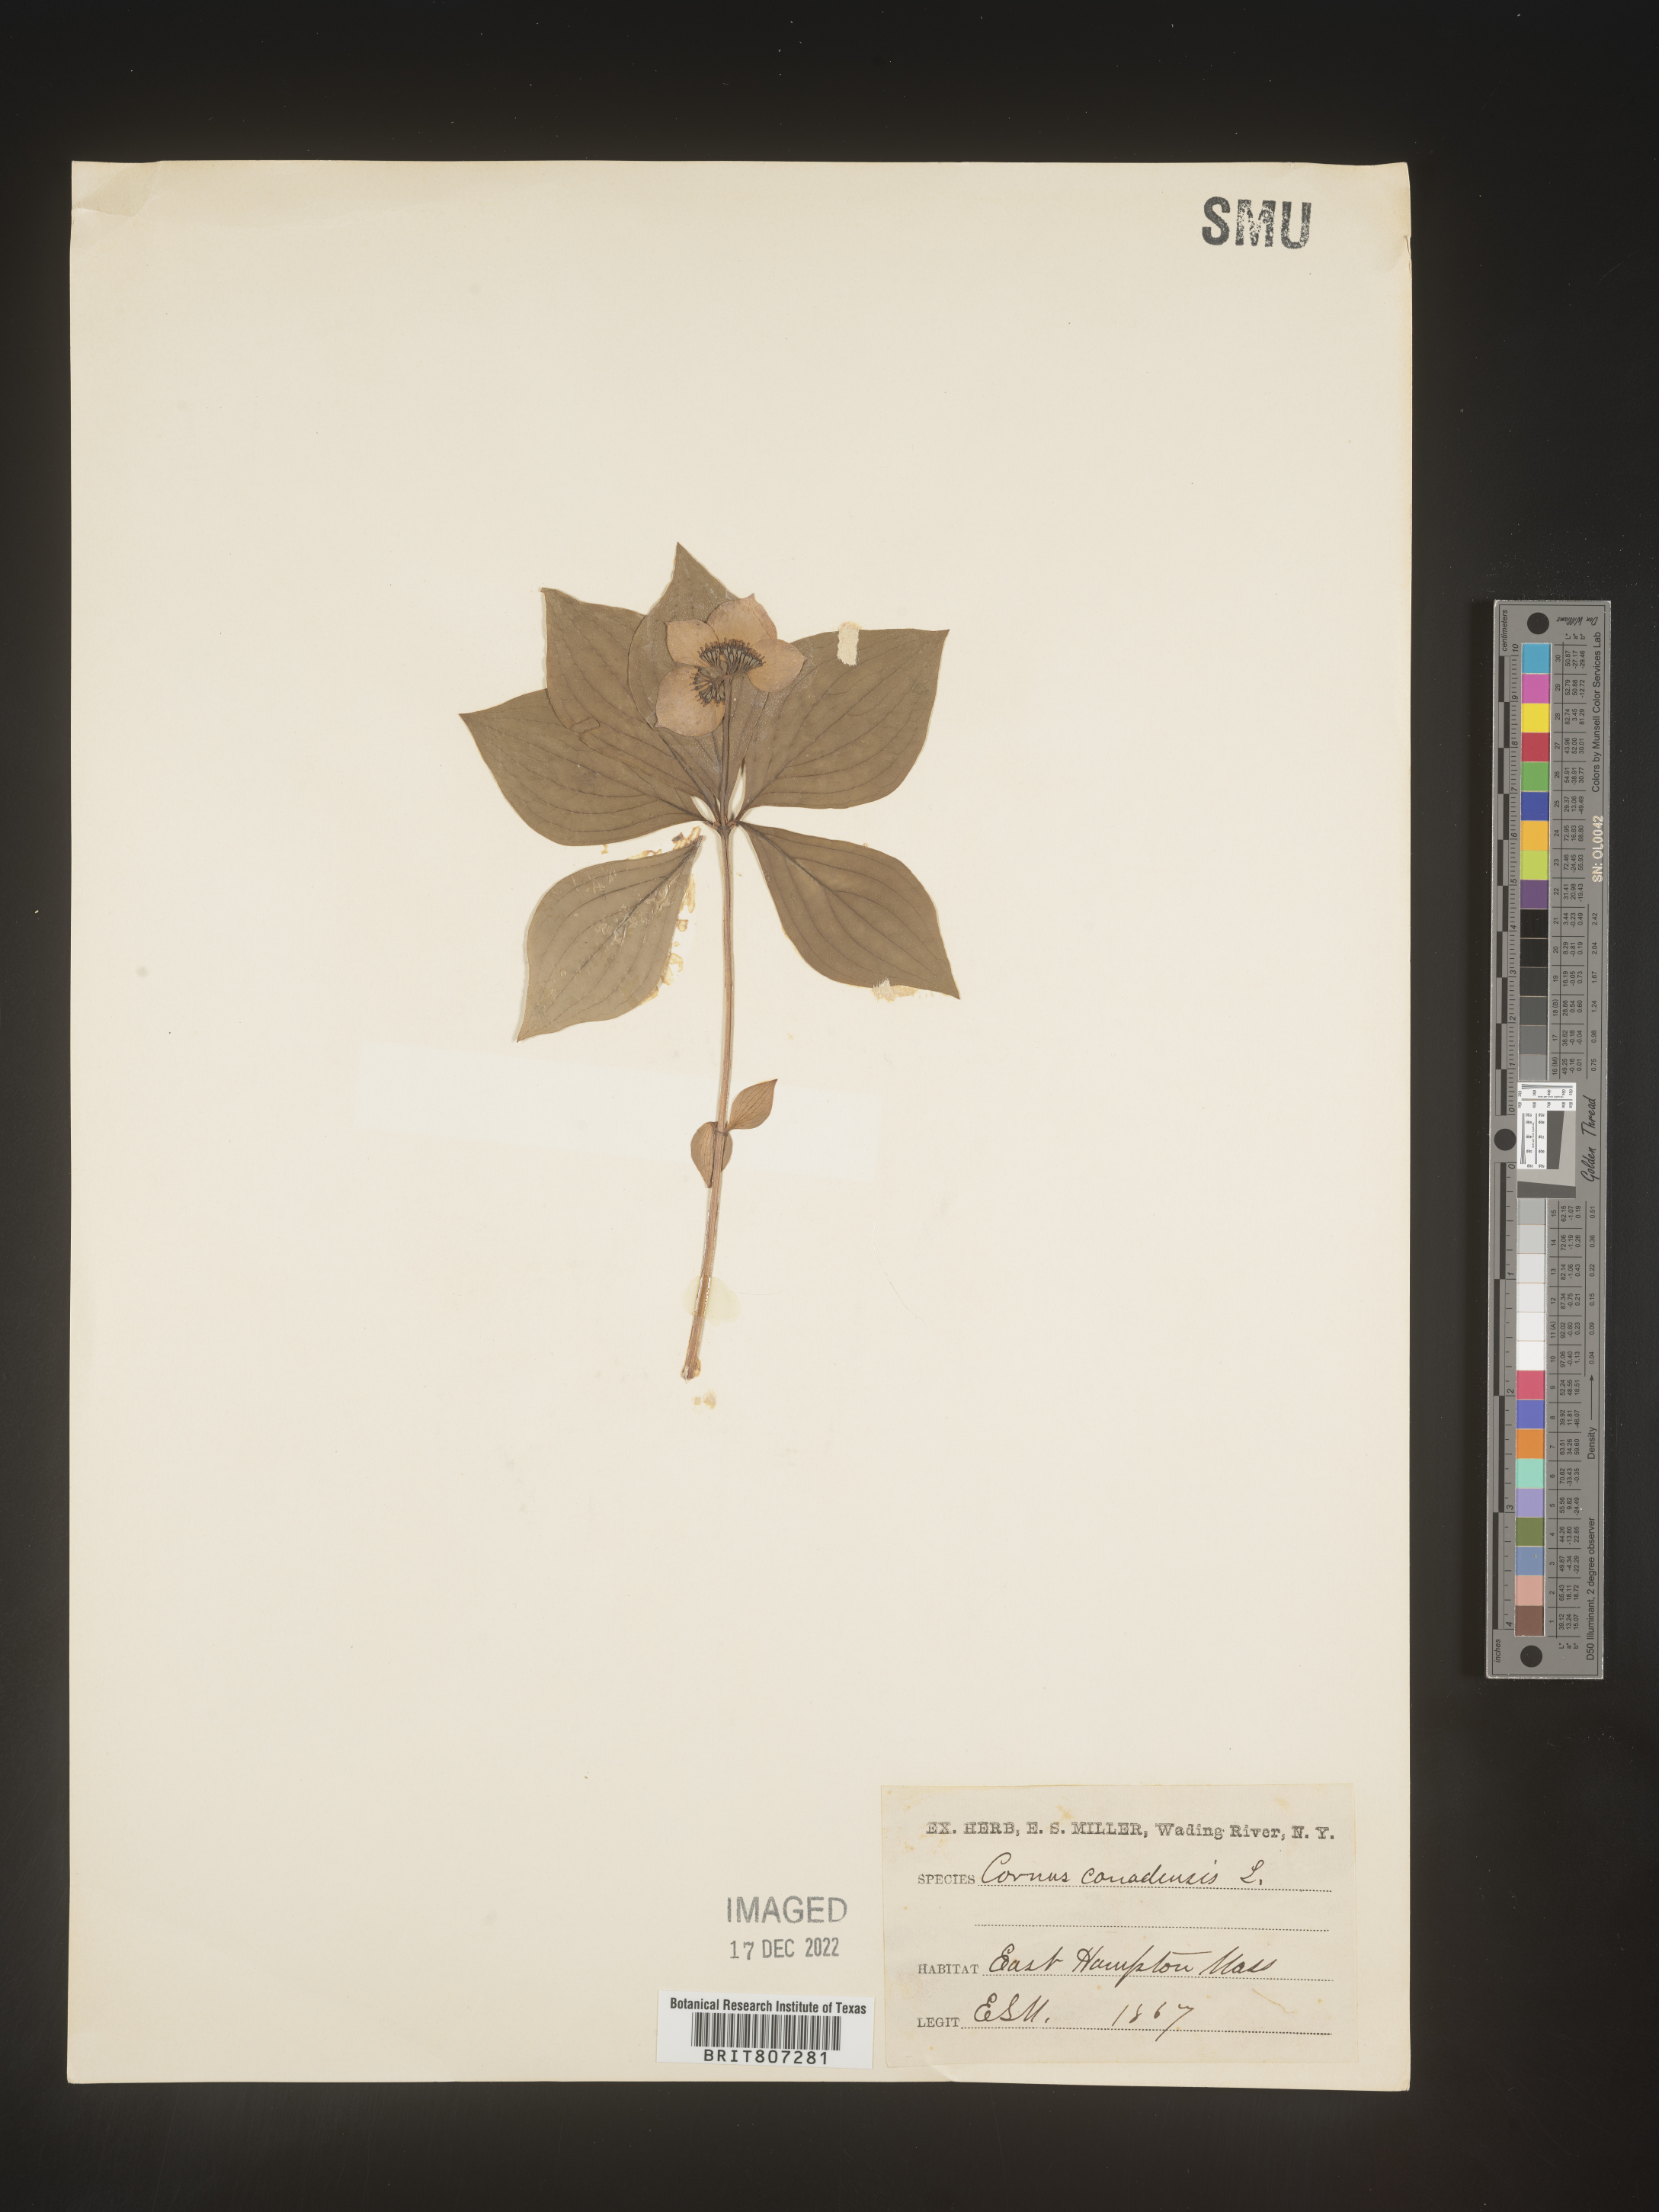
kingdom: Plantae
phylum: Tracheophyta
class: Magnoliopsida
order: Cornales
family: Cornaceae
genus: Cornus
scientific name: Cornus canadensis
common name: Creeping dogwood
